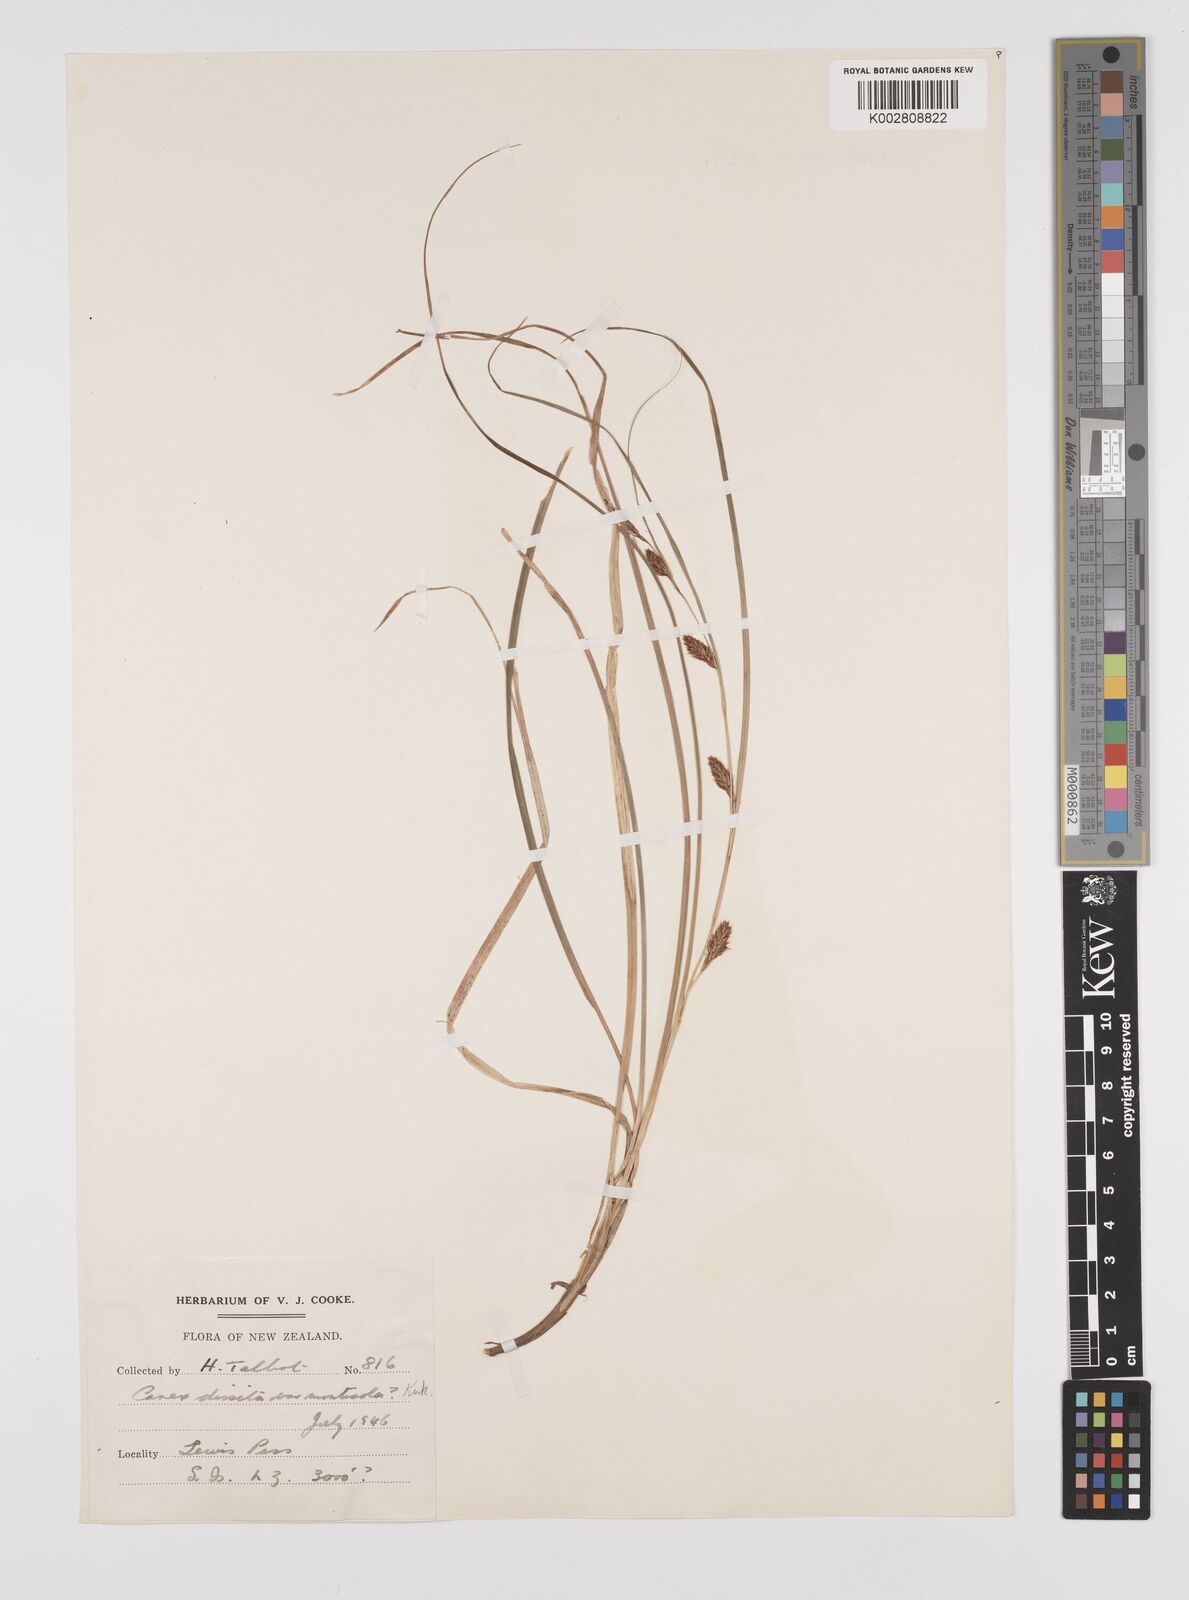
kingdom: Plantae
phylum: Tracheophyta
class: Liliopsida
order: Poales
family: Cyperaceae
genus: Carex
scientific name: Carex dissita
